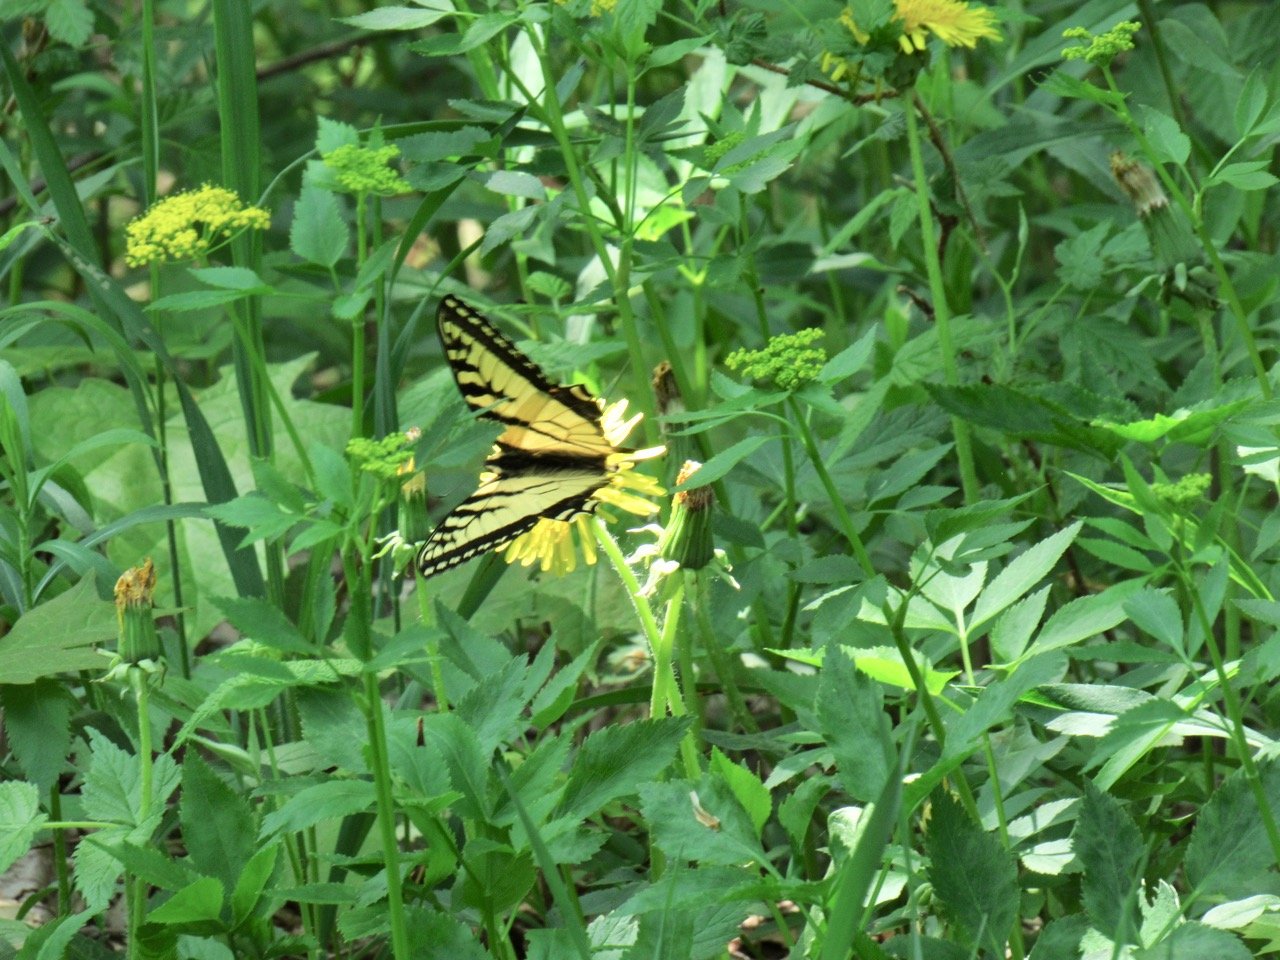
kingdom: Animalia
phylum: Arthropoda
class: Insecta
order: Lepidoptera
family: Papilionidae
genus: Pterourus
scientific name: Pterourus canadensis
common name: Canadian Tiger Swallowtail
